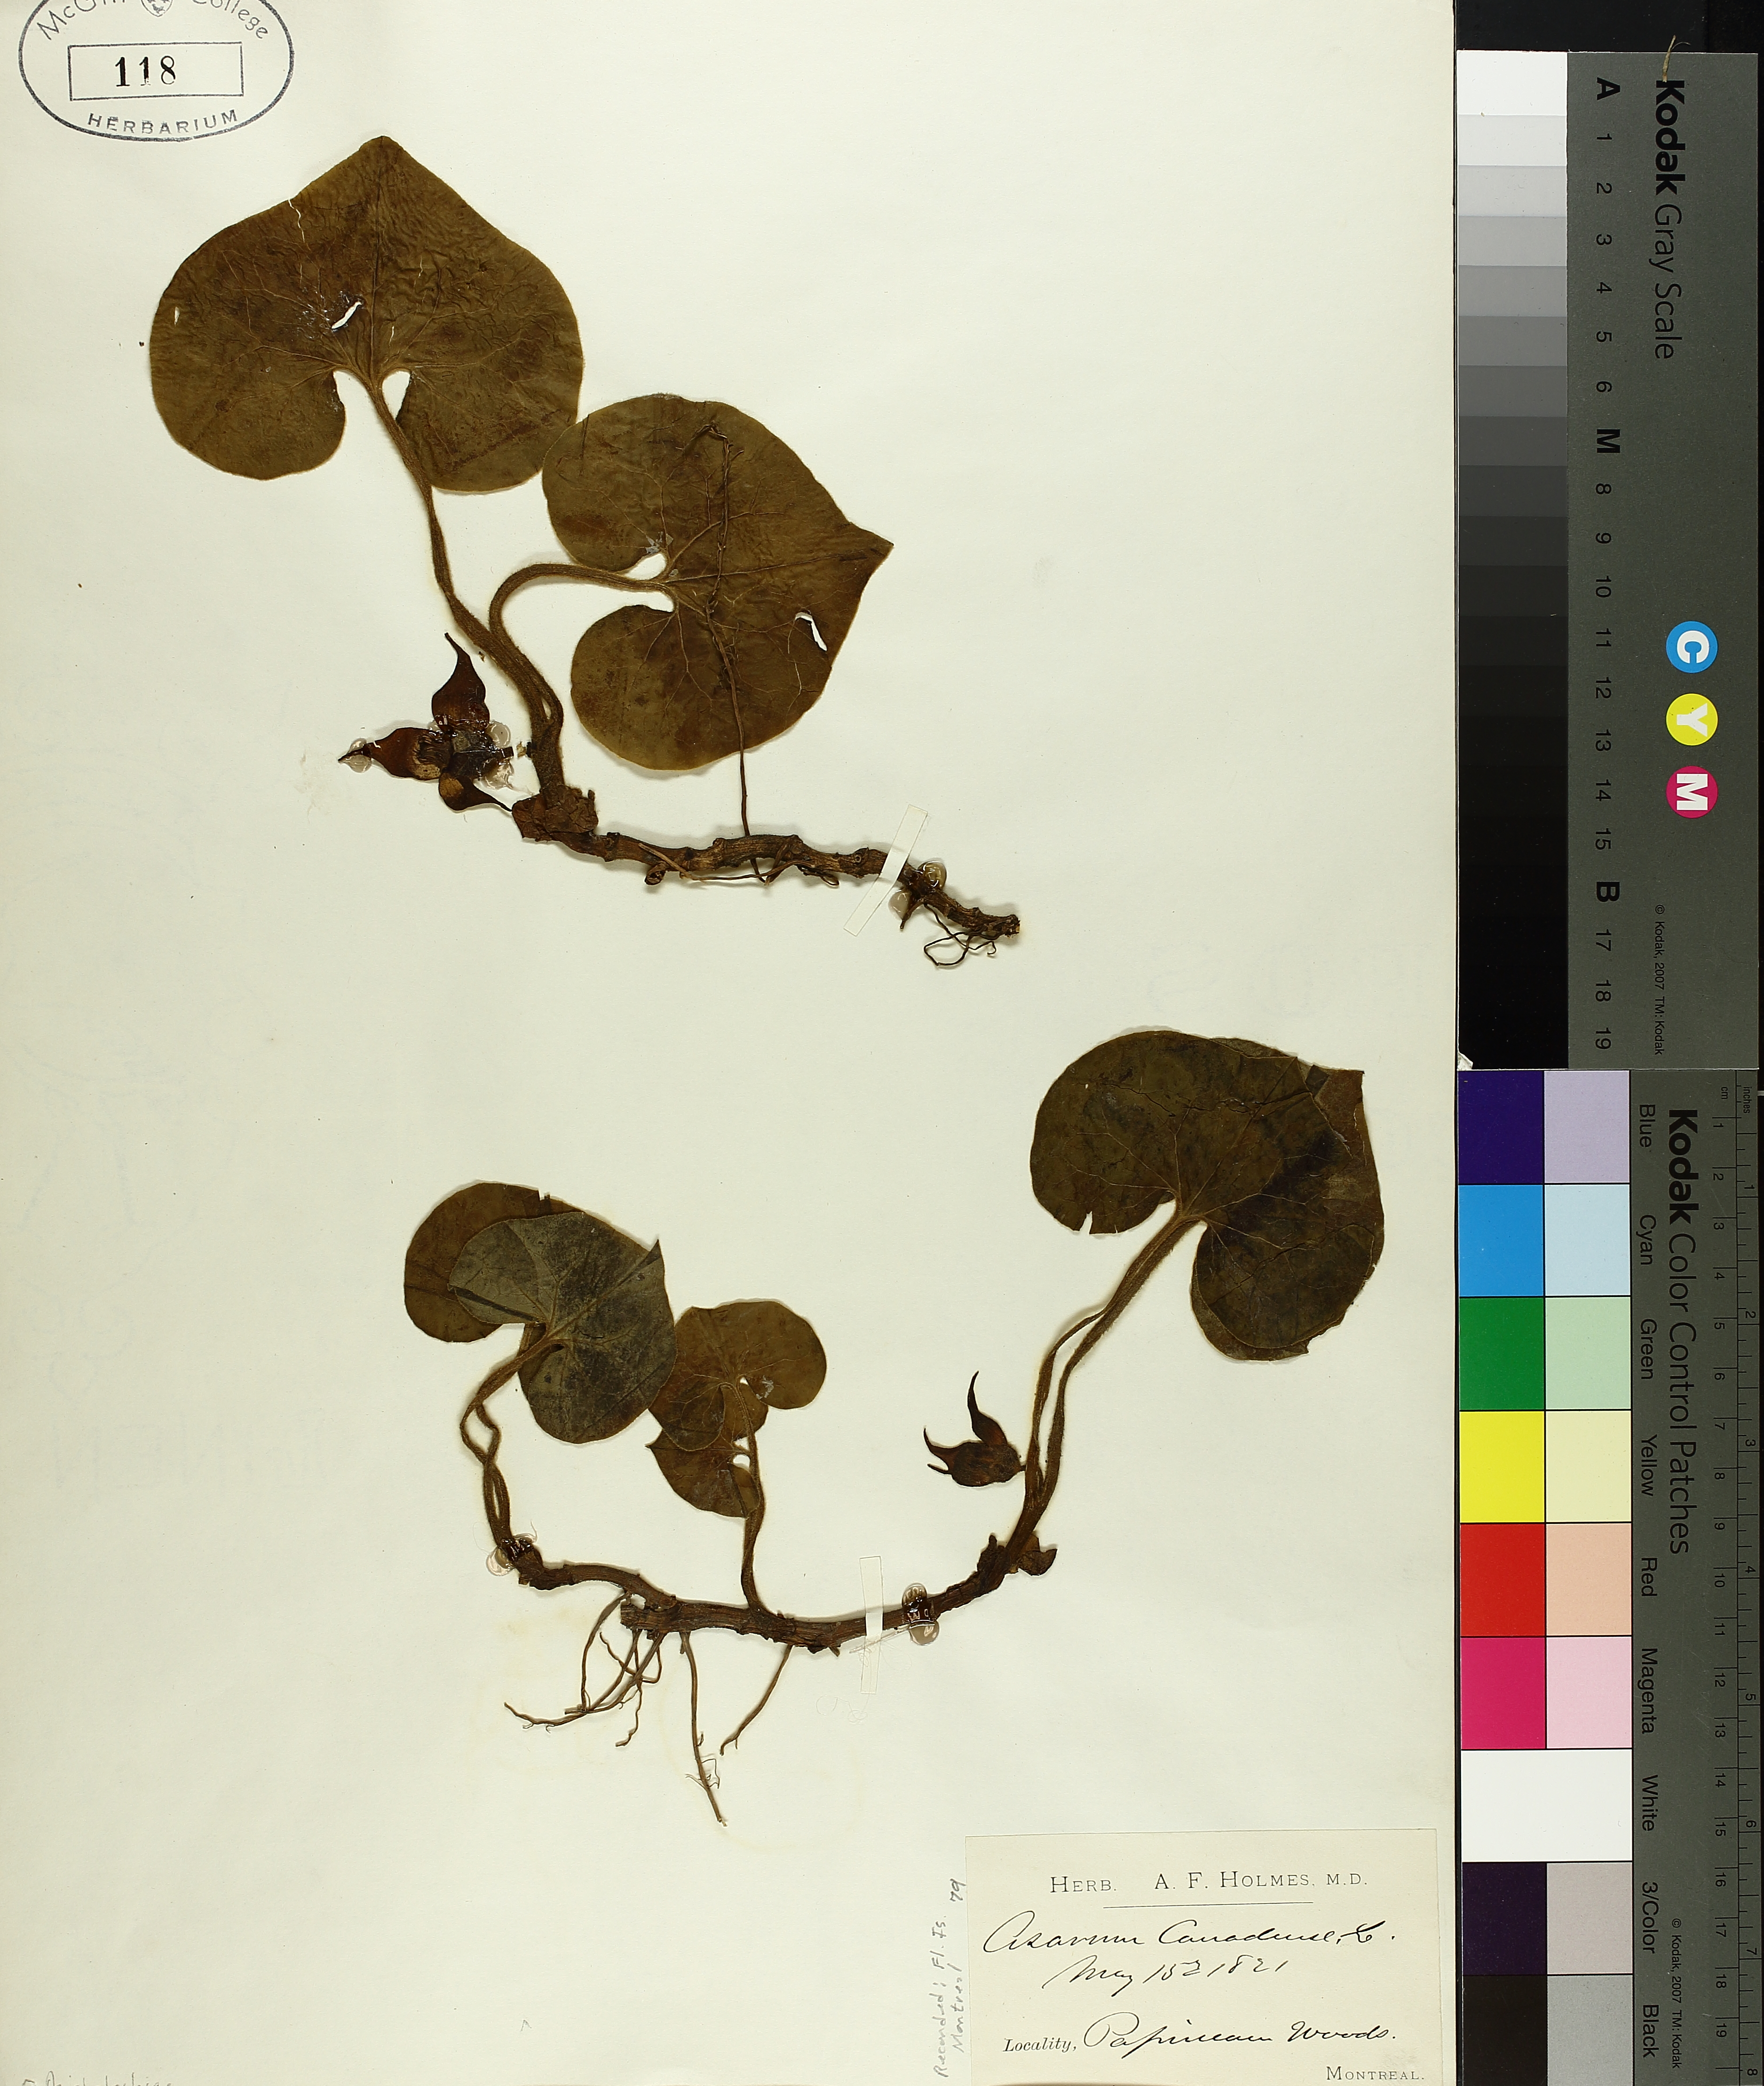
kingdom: Plantae
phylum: Tracheophyta
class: Magnoliopsida
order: Piperales
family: Aristolochiaceae
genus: Asarum
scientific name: Asarum canadense
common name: Wild ginger
